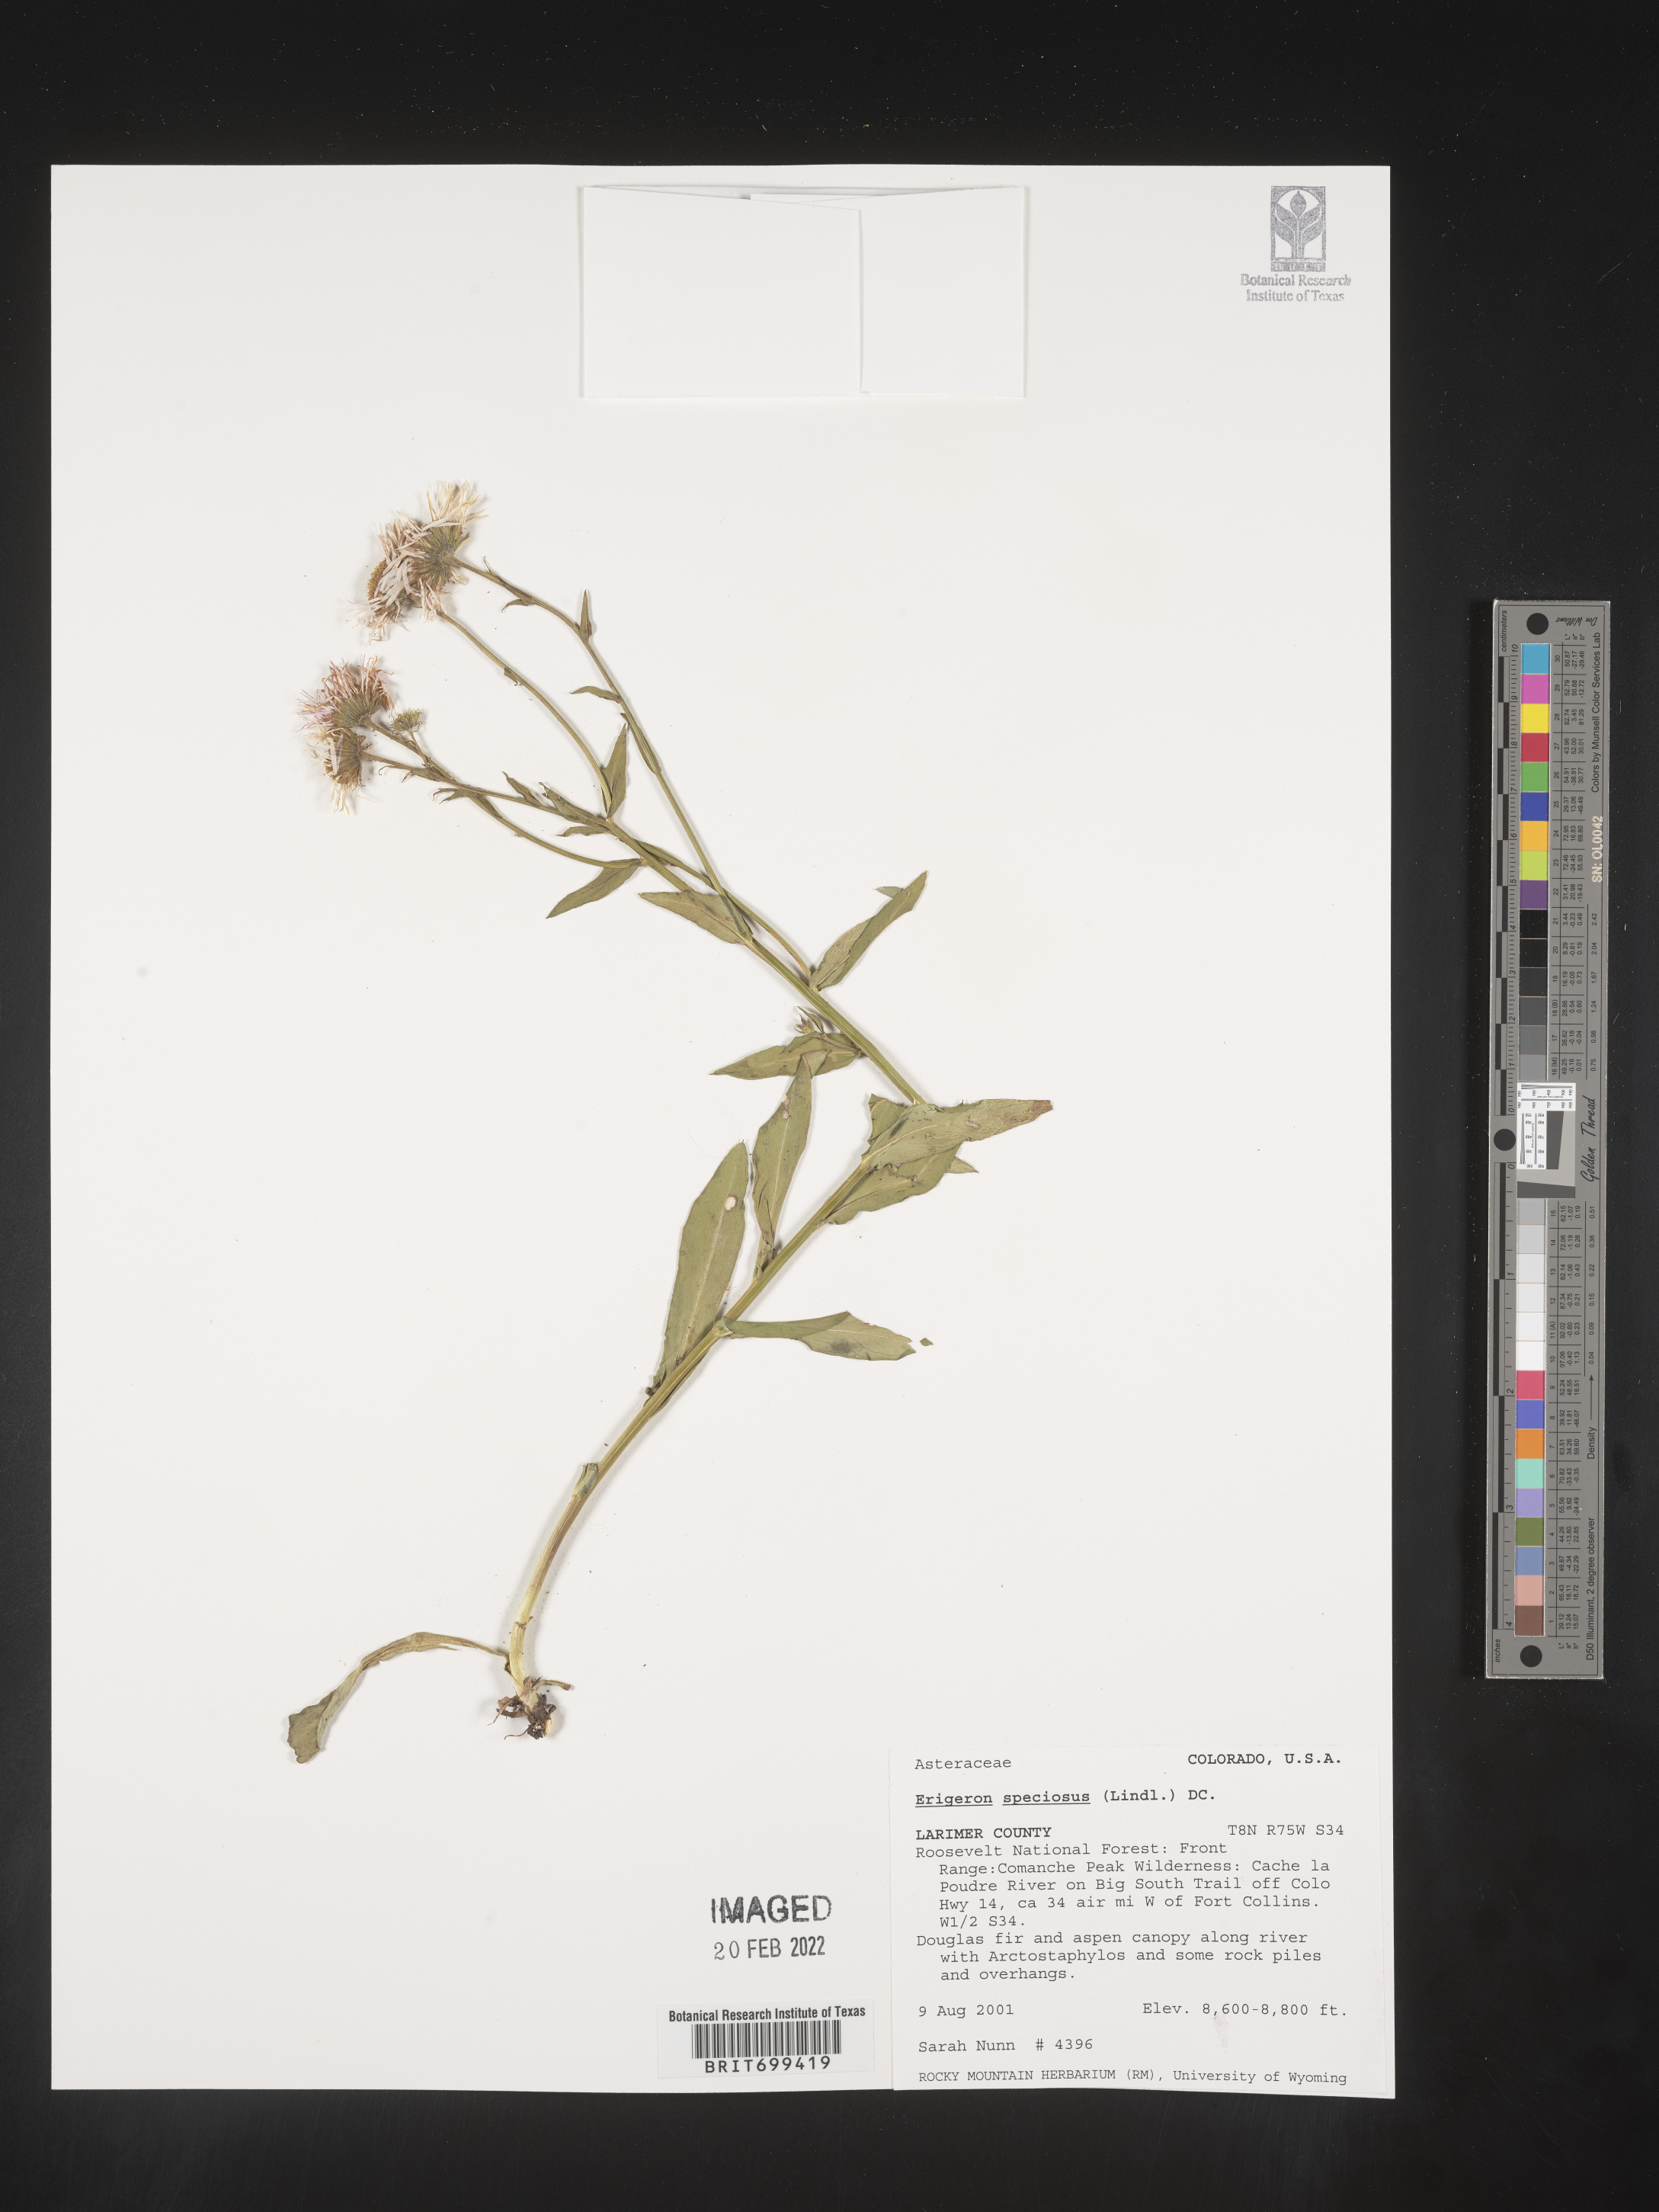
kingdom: Plantae
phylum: Tracheophyta
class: Magnoliopsida
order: Asterales
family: Asteraceae
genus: Erigeron
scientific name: Erigeron speciosus
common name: Aspen fleabane
